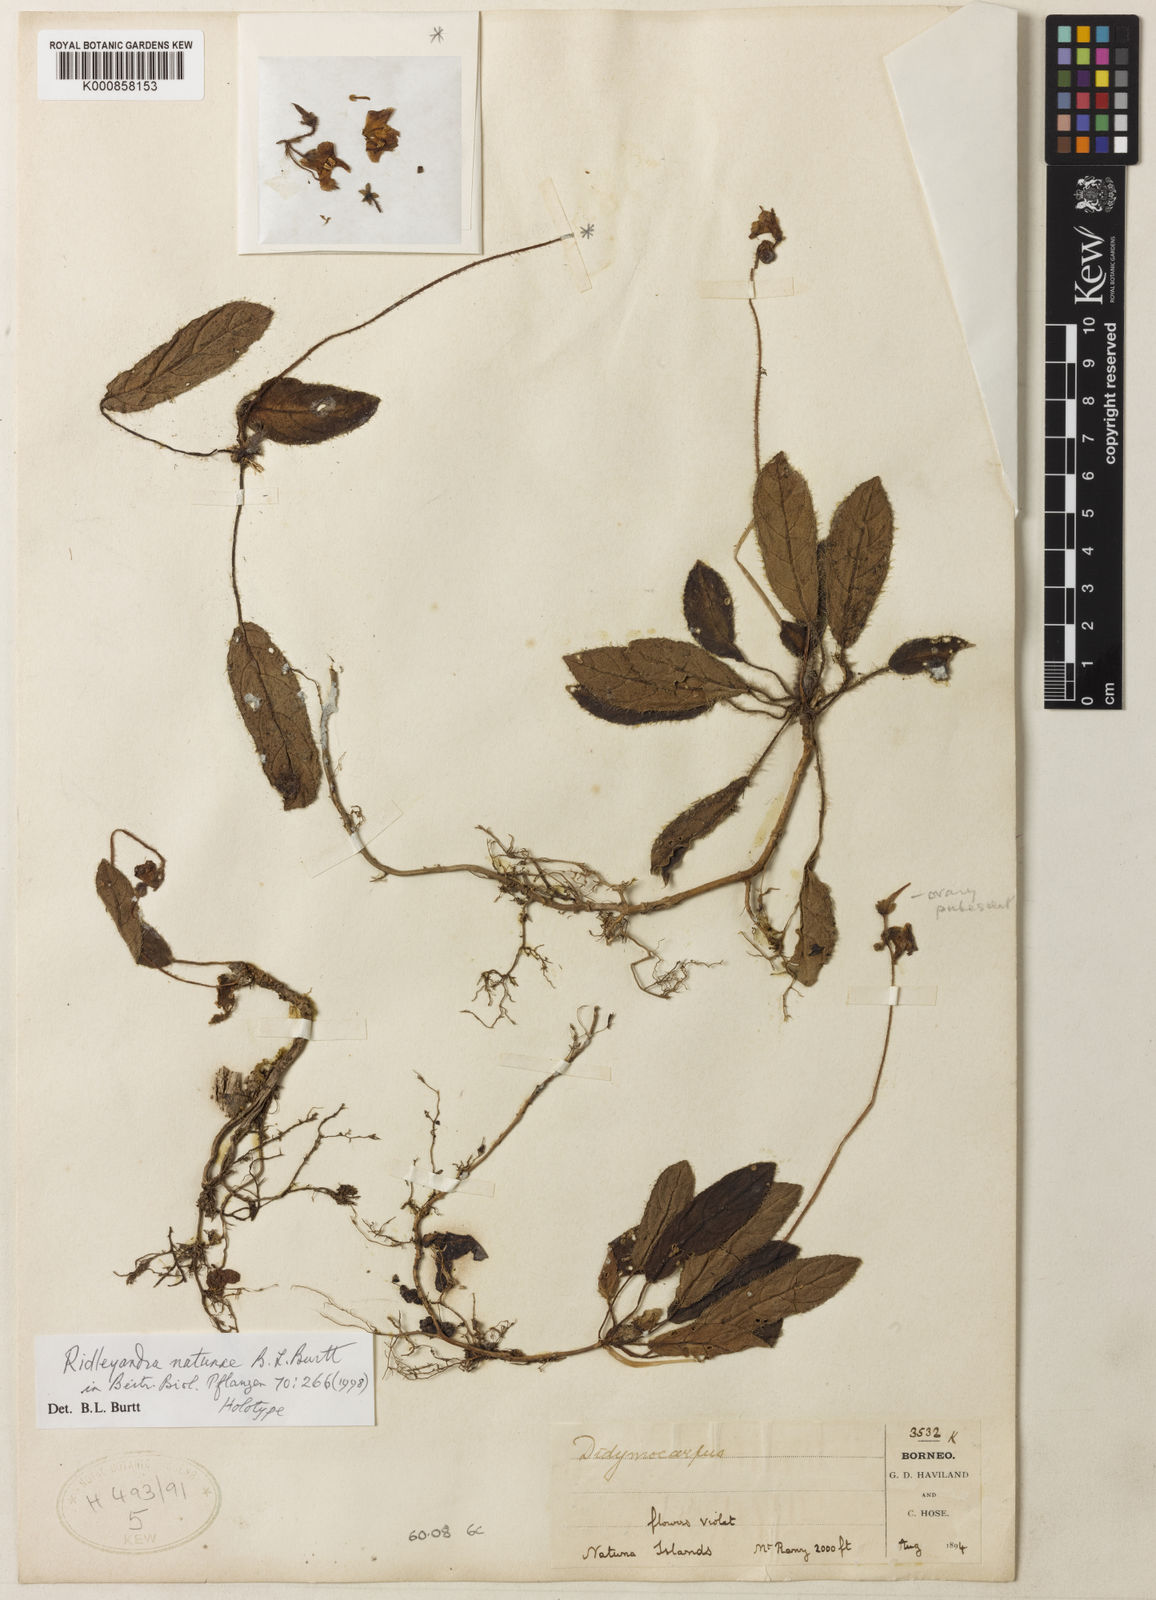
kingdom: Plantae
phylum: Tracheophyta
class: Magnoliopsida
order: Lamiales
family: Gesneriaceae
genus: Ridleyandra
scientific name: Ridleyandra natunae
